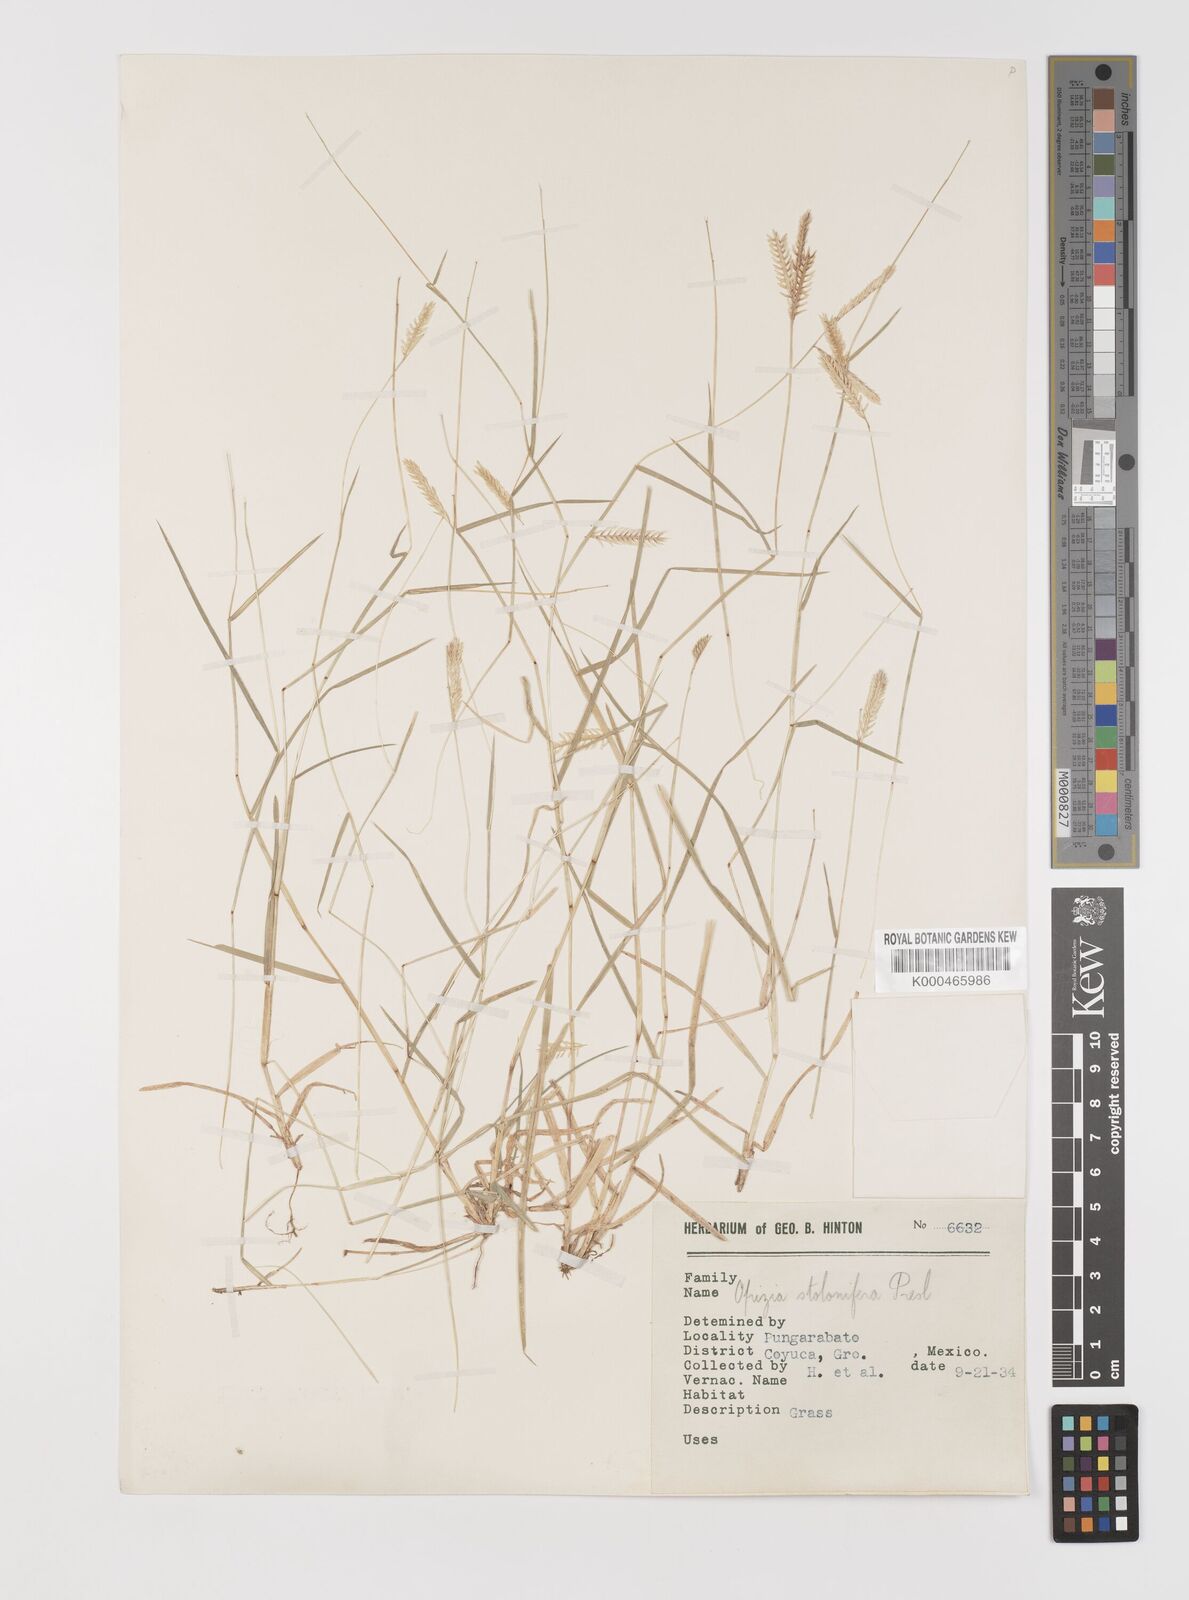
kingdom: Plantae
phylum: Tracheophyta
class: Liliopsida
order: Poales
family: Poaceae
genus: Bouteloua
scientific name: Bouteloua dimorpha
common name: Acapulco grass
